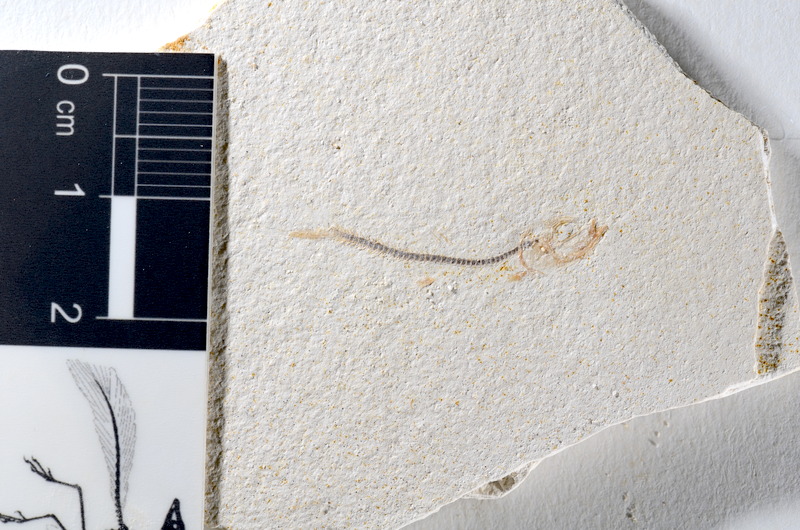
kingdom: Animalia
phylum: Chordata
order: Salmoniformes
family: Orthogonikleithridae
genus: Orthogonikleithrus
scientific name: Orthogonikleithrus hoelli
